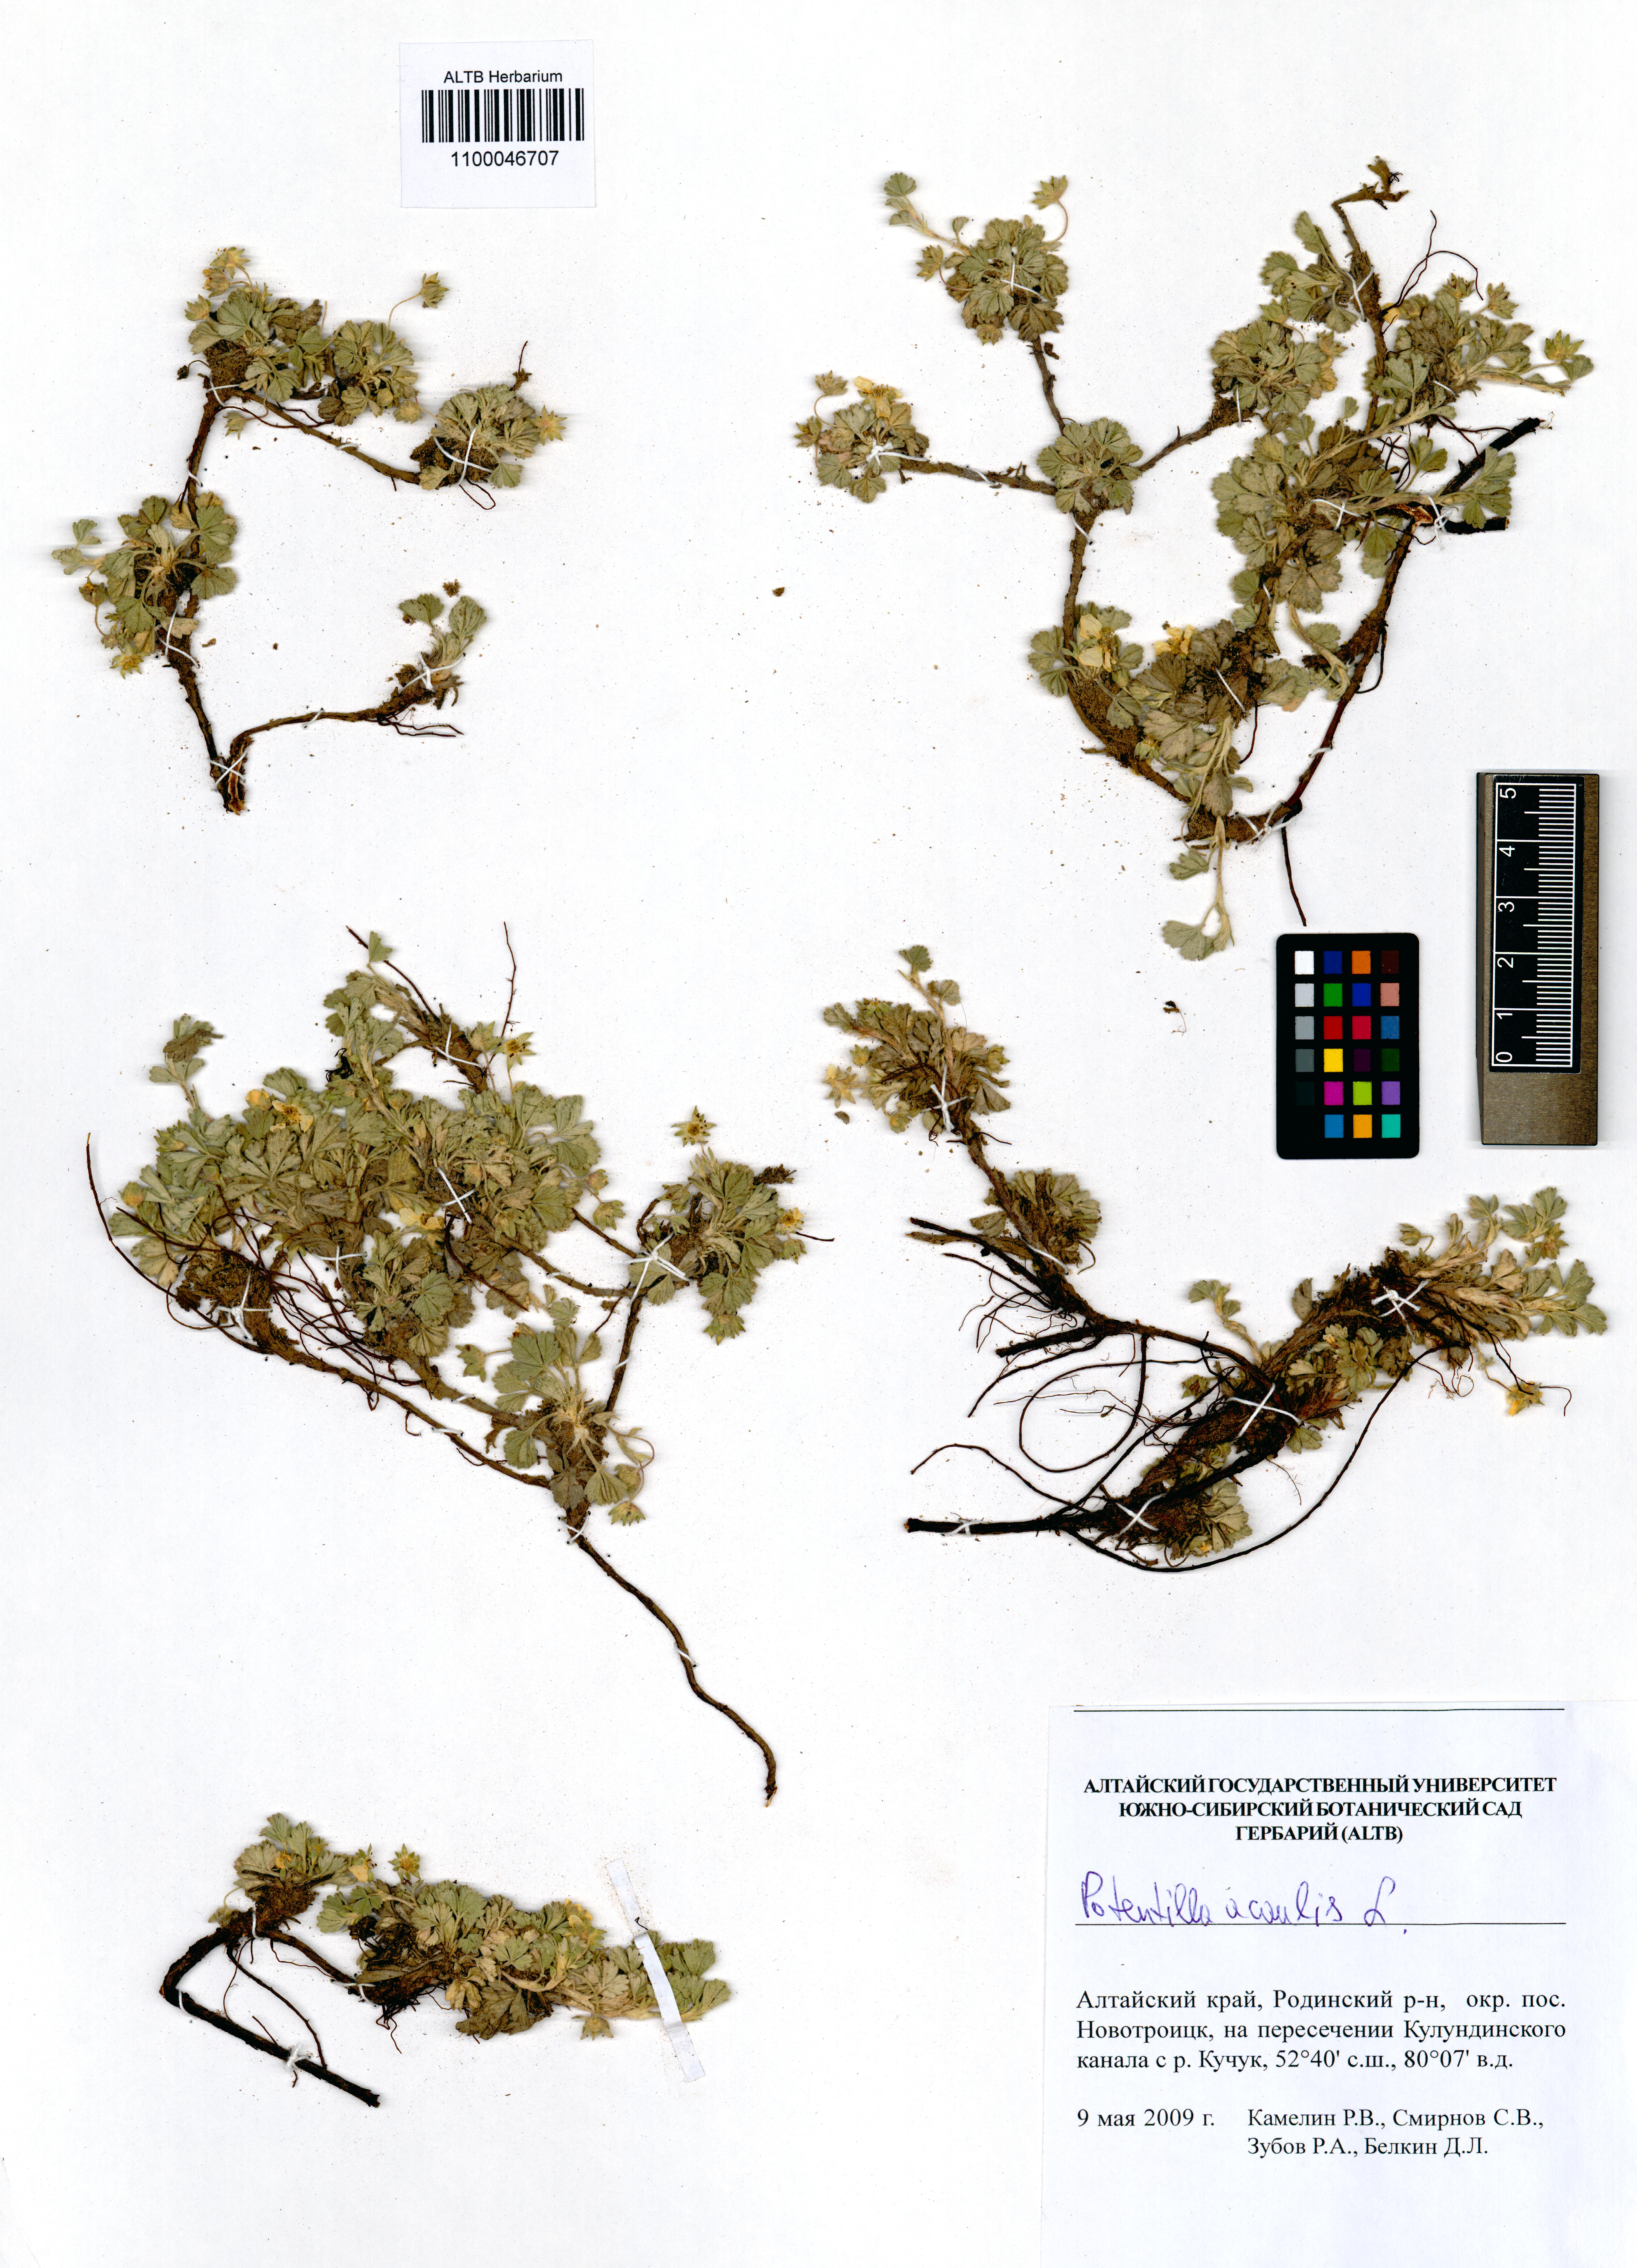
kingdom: Plantae
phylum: Tracheophyta
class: Magnoliopsida
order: Rosales
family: Rosaceae
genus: Potentilla
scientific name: Potentilla acaulis
